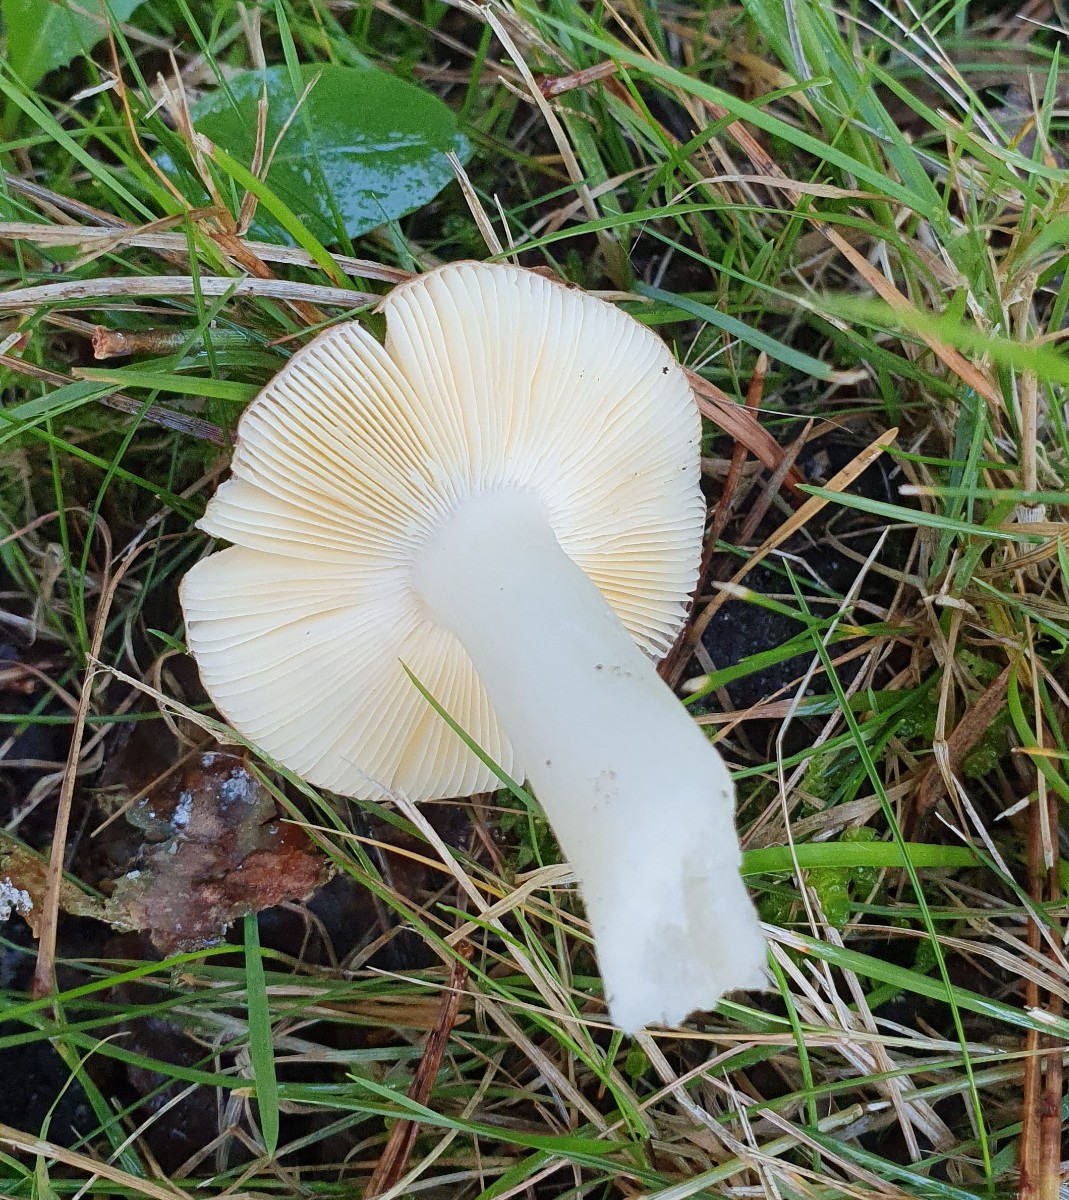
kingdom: Fungi
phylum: Basidiomycota
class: Agaricomycetes
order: Russulales
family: Russulaceae
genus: Russula
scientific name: Russula cessans
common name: fyrre-skørhat
